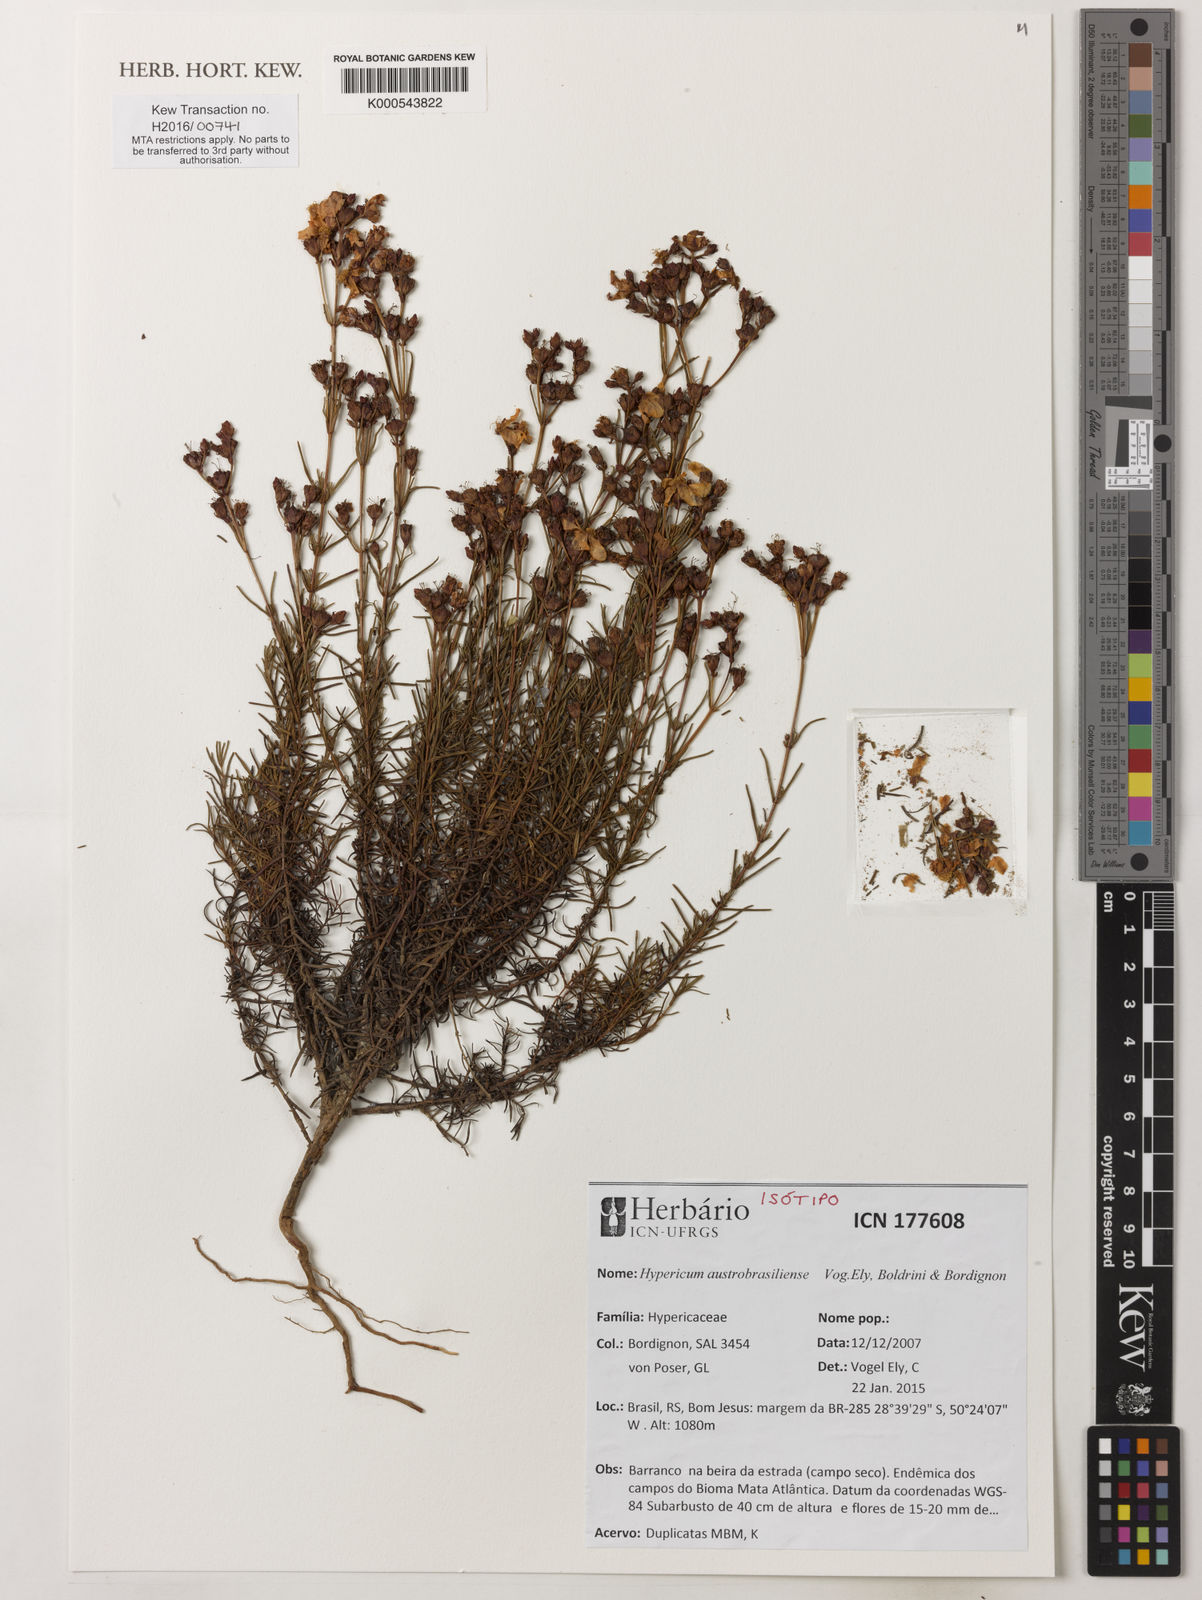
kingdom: Plantae
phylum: Tracheophyta
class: Magnoliopsida
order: Malpighiales
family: Hypericaceae
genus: Hypericum
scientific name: Hypericum austrobrasiliense
